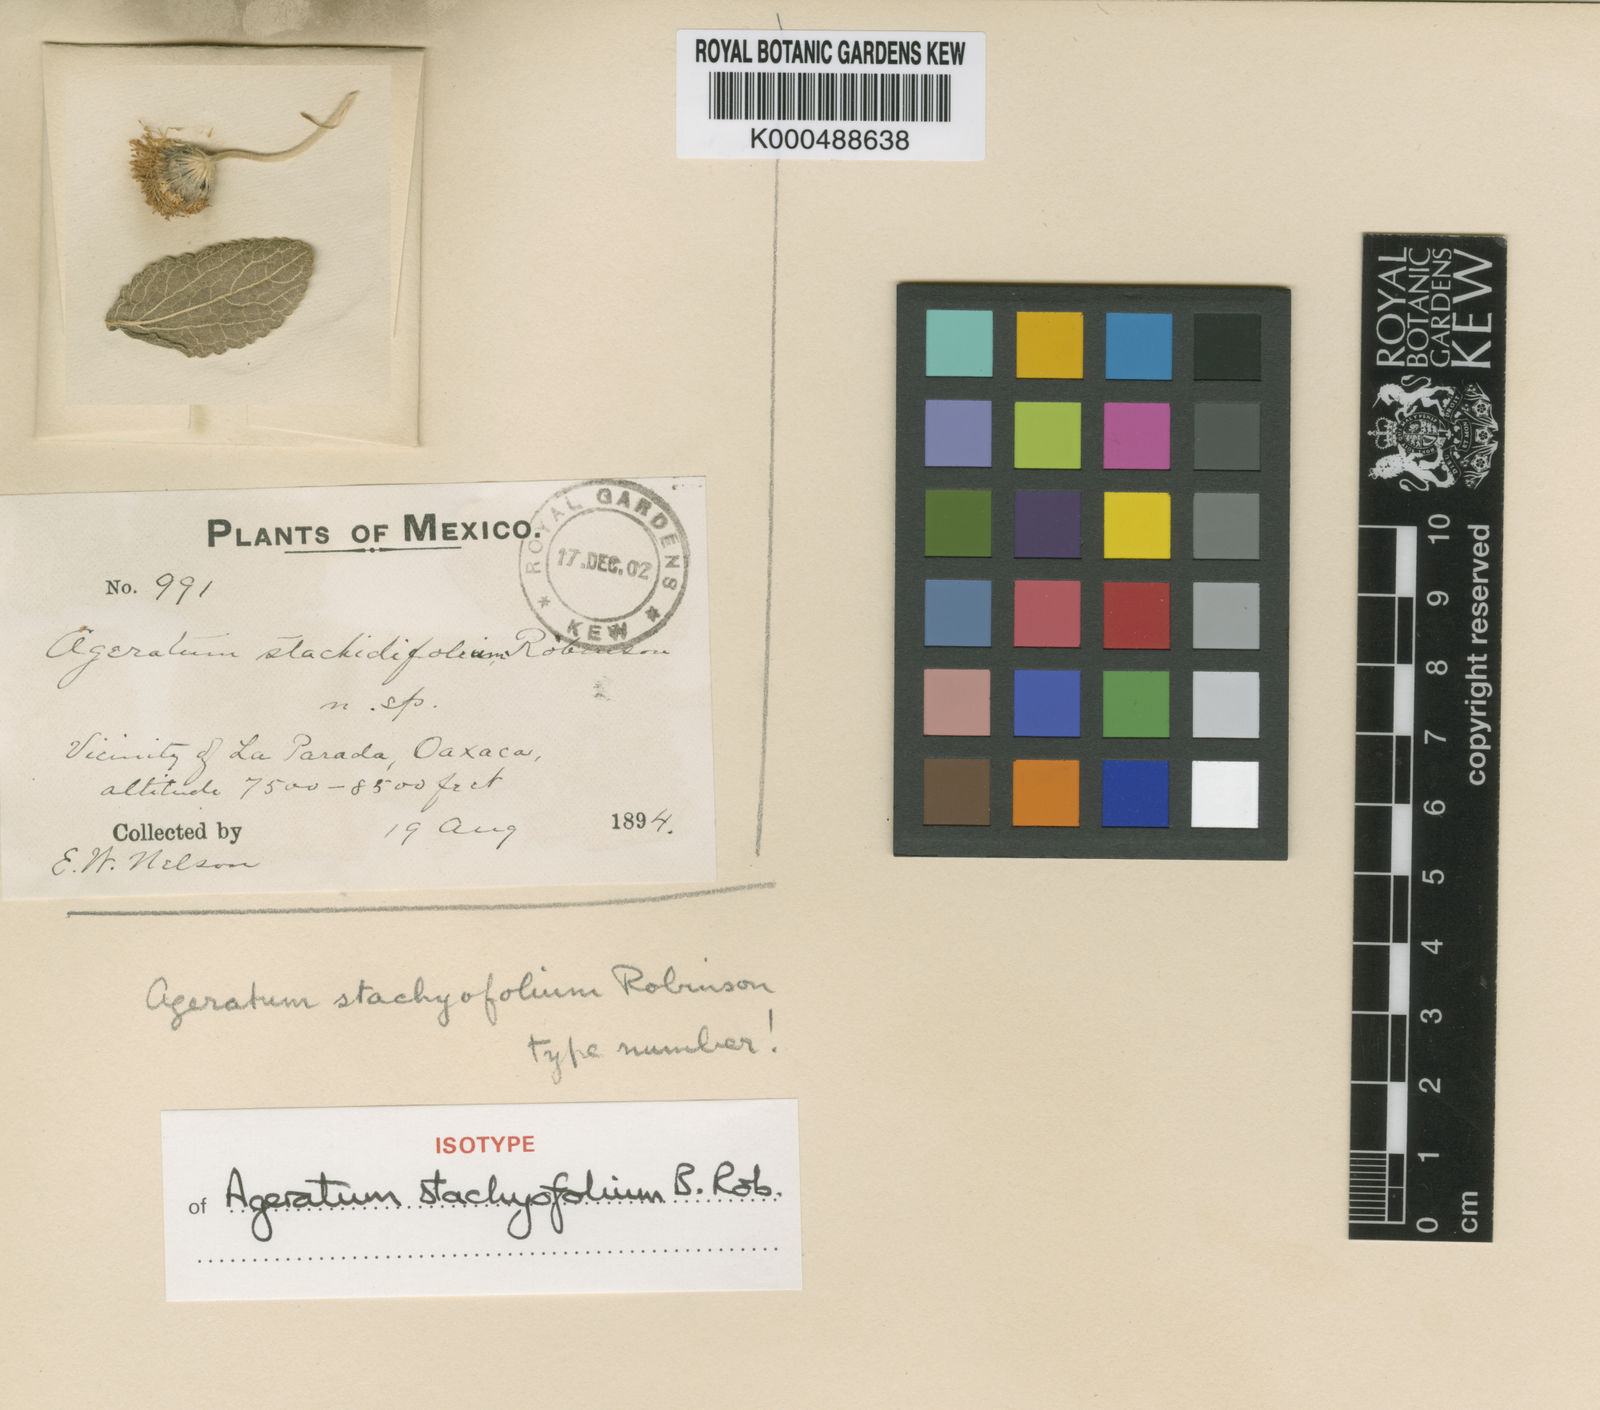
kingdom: Plantae
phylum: Tracheophyta
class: Magnoliopsida
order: Asterales
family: Asteraceae
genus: Paneroa
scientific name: Paneroa stachyofolia
